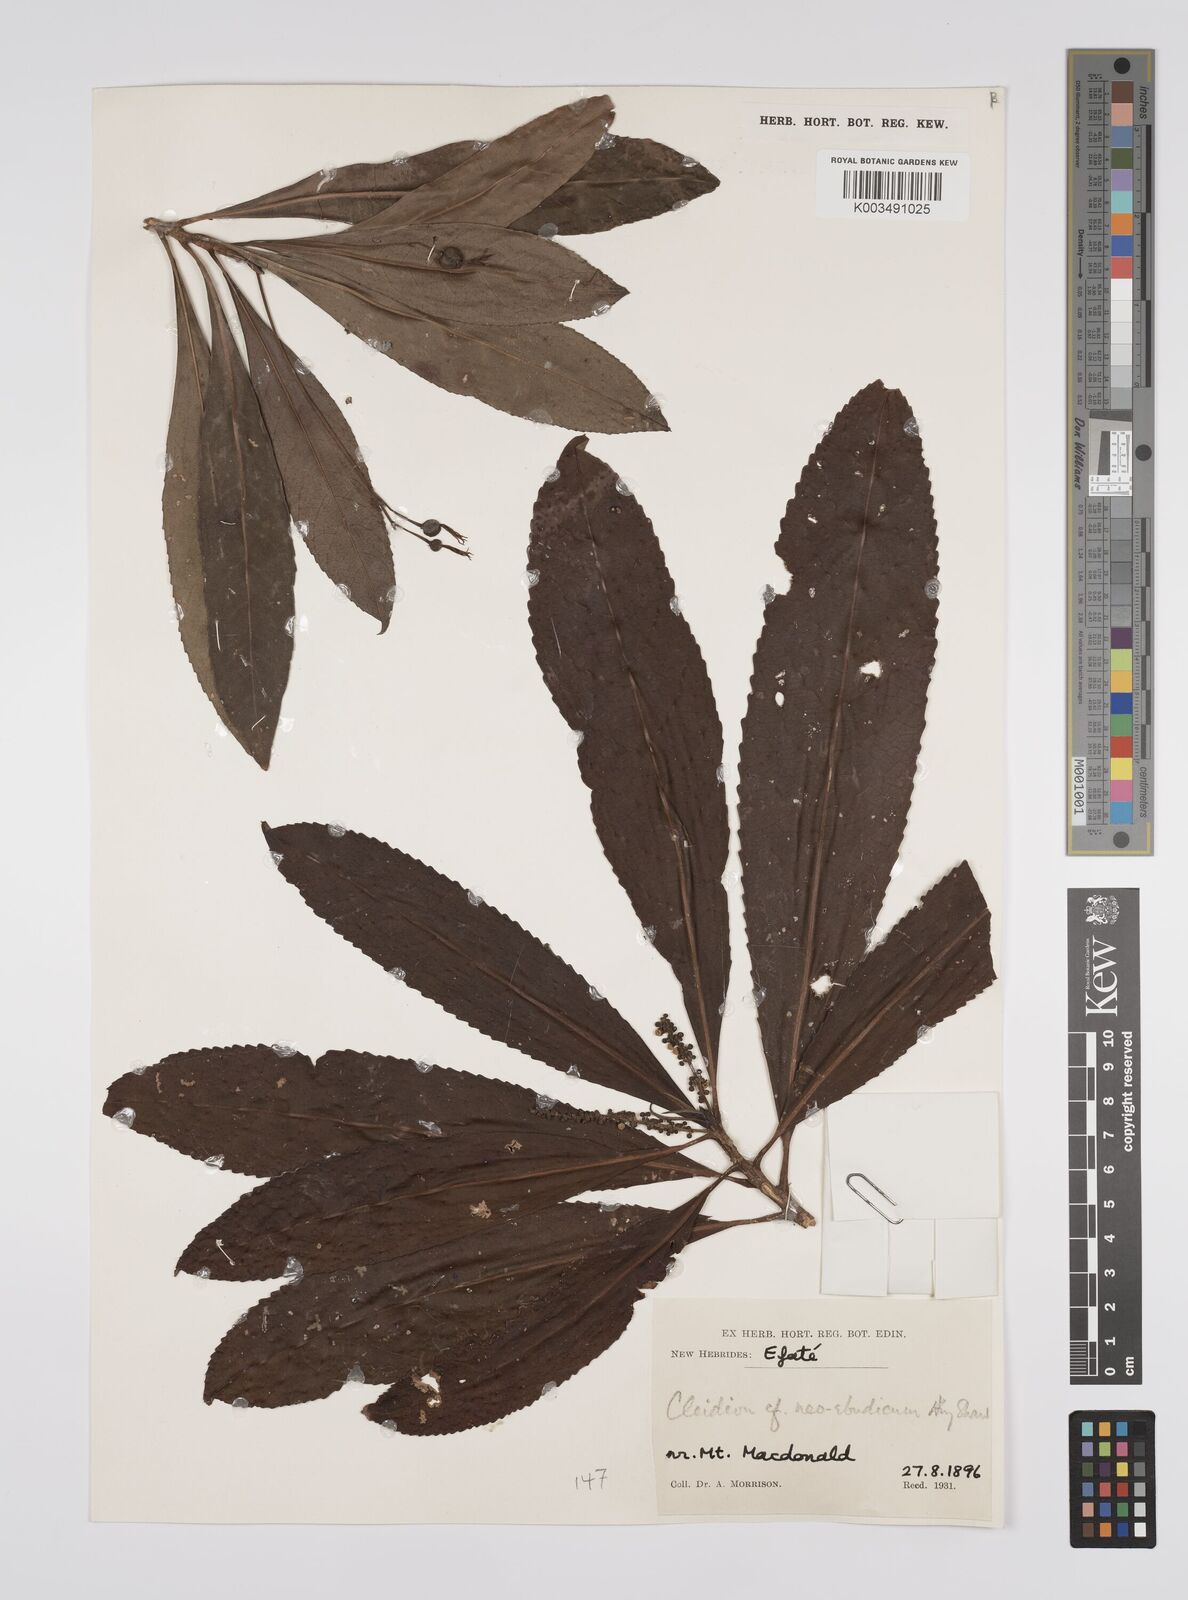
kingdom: Plantae
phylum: Tracheophyta
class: Magnoliopsida
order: Malpighiales
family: Euphorbiaceae
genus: Cleidion
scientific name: Cleidion neoebudicum
